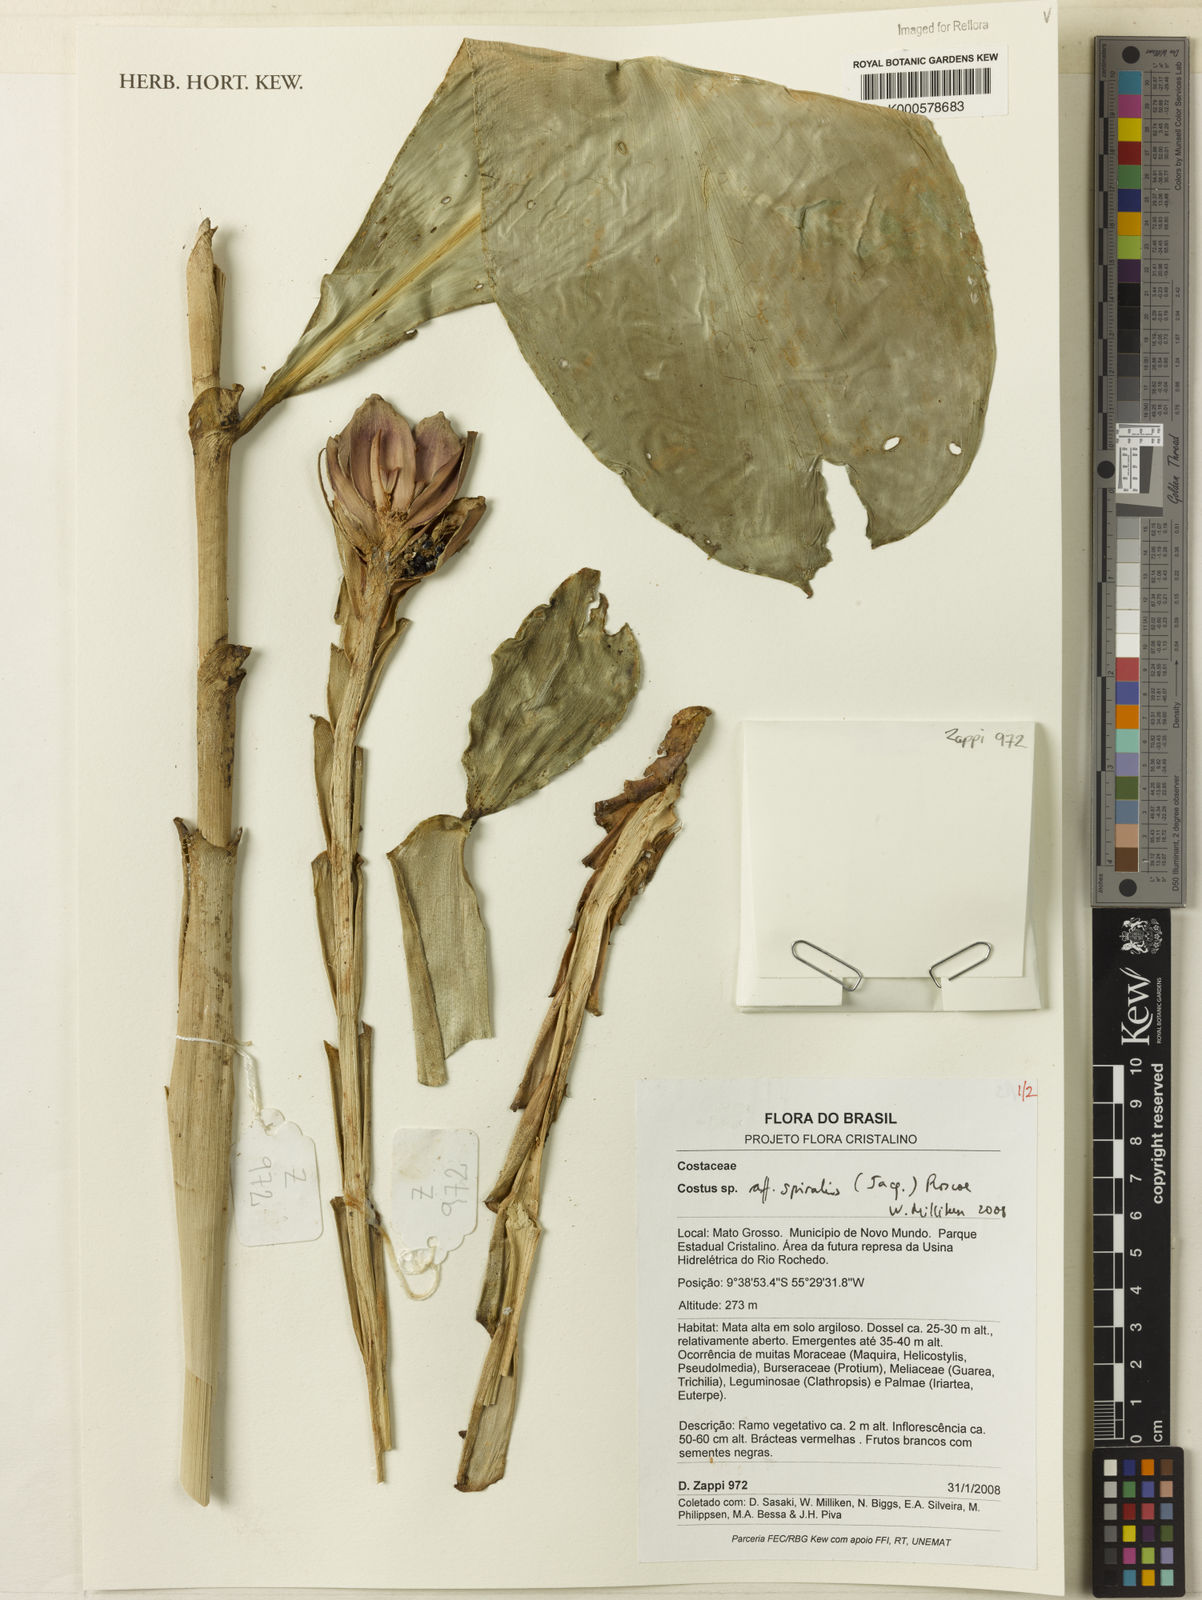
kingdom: Plantae
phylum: Tracheophyta
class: Liliopsida
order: Zingiberales
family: Costaceae
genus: Costus
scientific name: Costus spiralis
